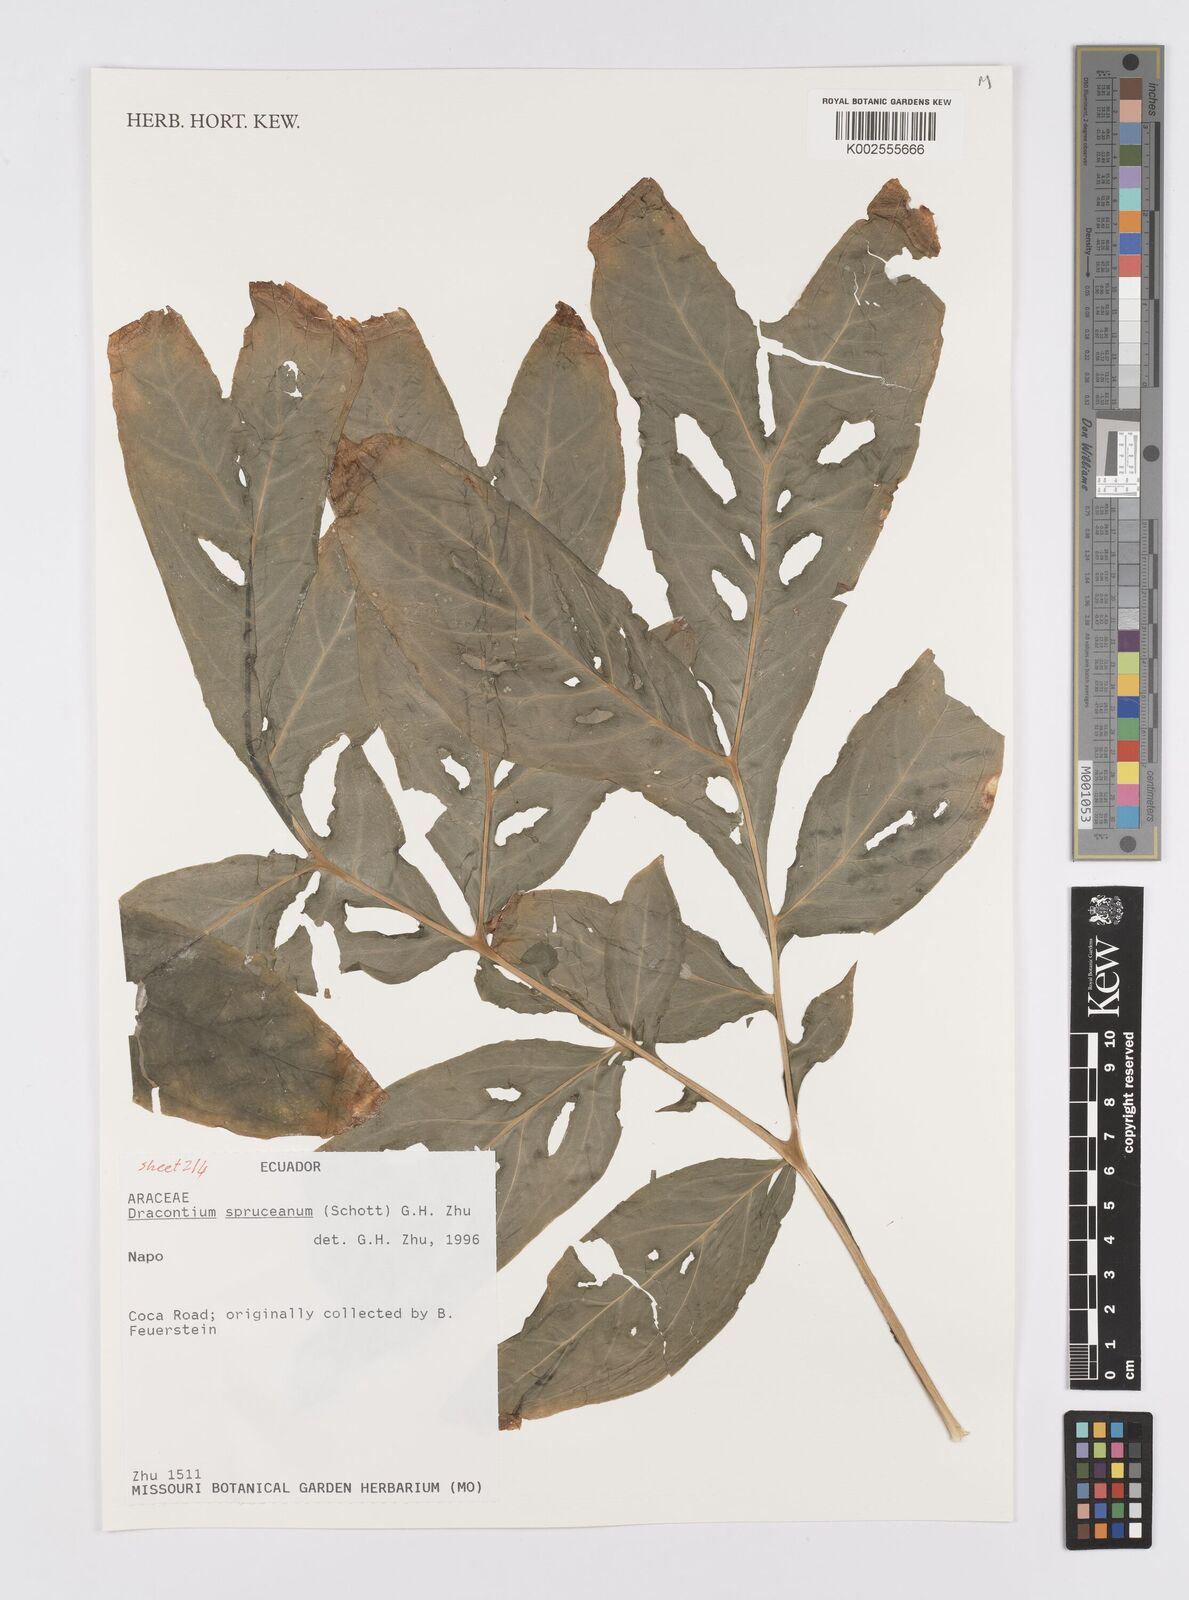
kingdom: Plantae
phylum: Tracheophyta
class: Liliopsida
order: Alismatales
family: Araceae
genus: Dracontium
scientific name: Dracontium spruceanum
